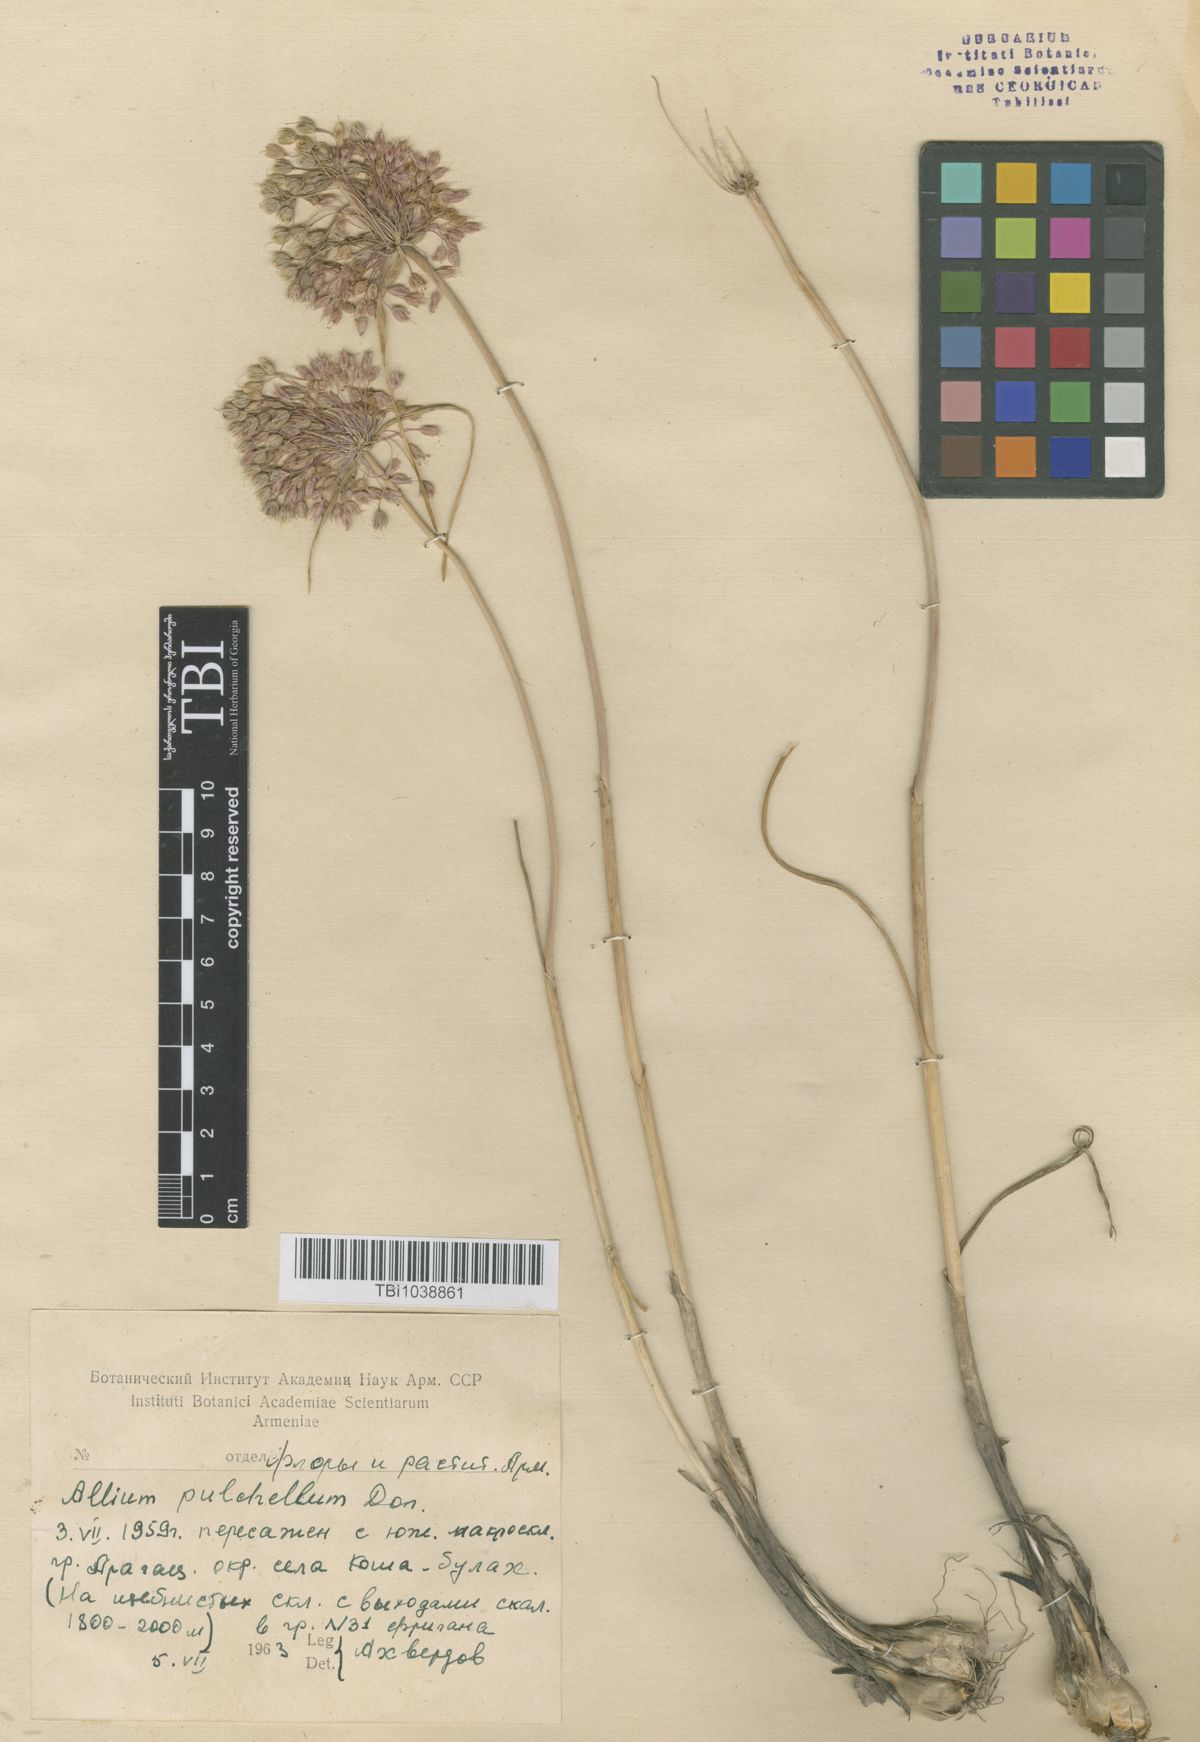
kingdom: Plantae
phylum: Tracheophyta
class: Liliopsida
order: Asparagales
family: Amaryllidaceae
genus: Allium
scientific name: Allium flavum
